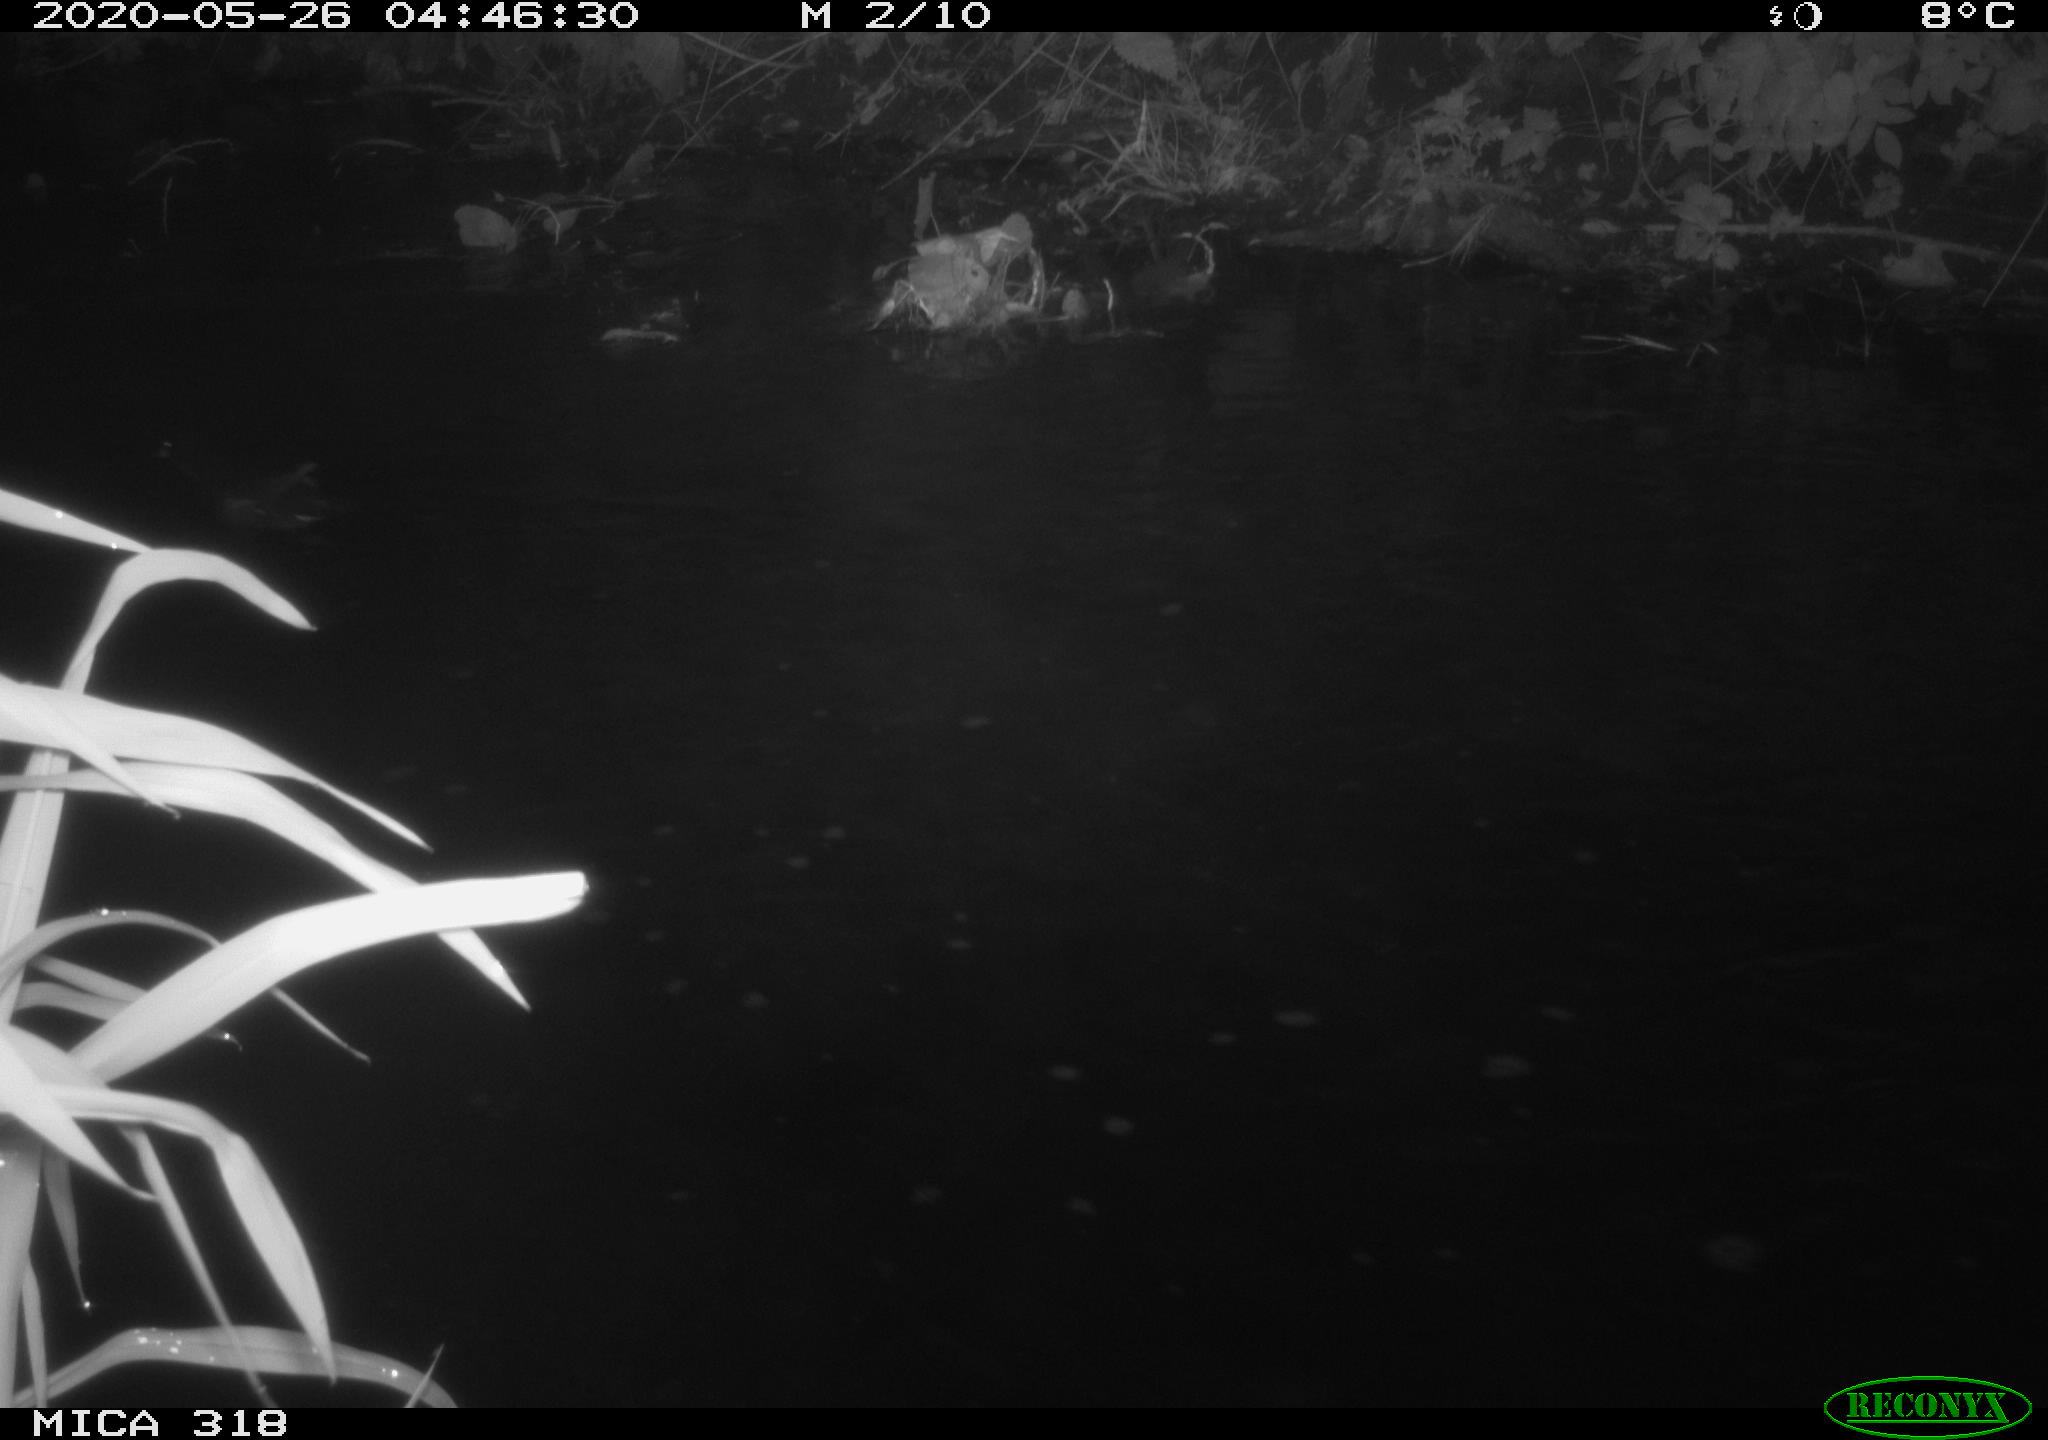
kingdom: Animalia
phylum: Chordata
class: Aves
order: Gruiformes
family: Rallidae
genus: Gallinula
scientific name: Gallinula chloropus
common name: Common moorhen
